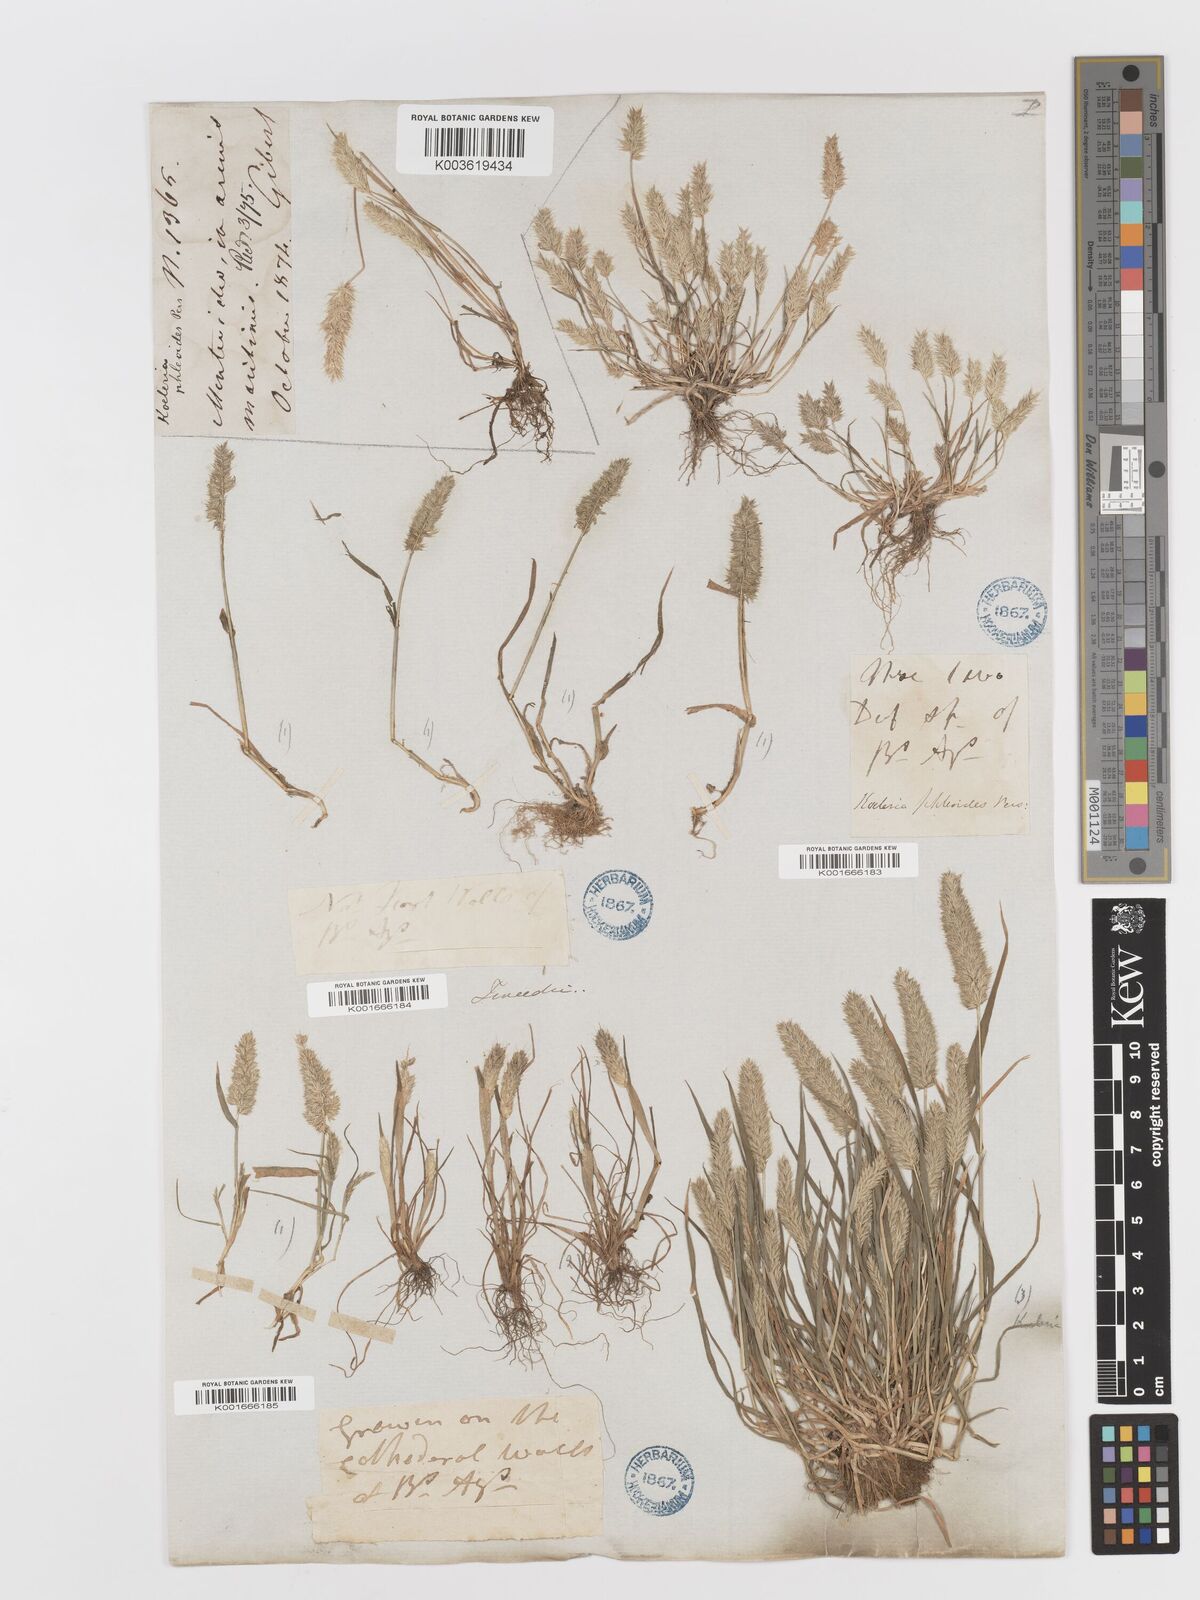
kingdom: Plantae
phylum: Tracheophyta
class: Liliopsida
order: Poales
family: Poaceae
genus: Rostraria
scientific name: Rostraria cristata
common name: Mediterranean hair-grass
